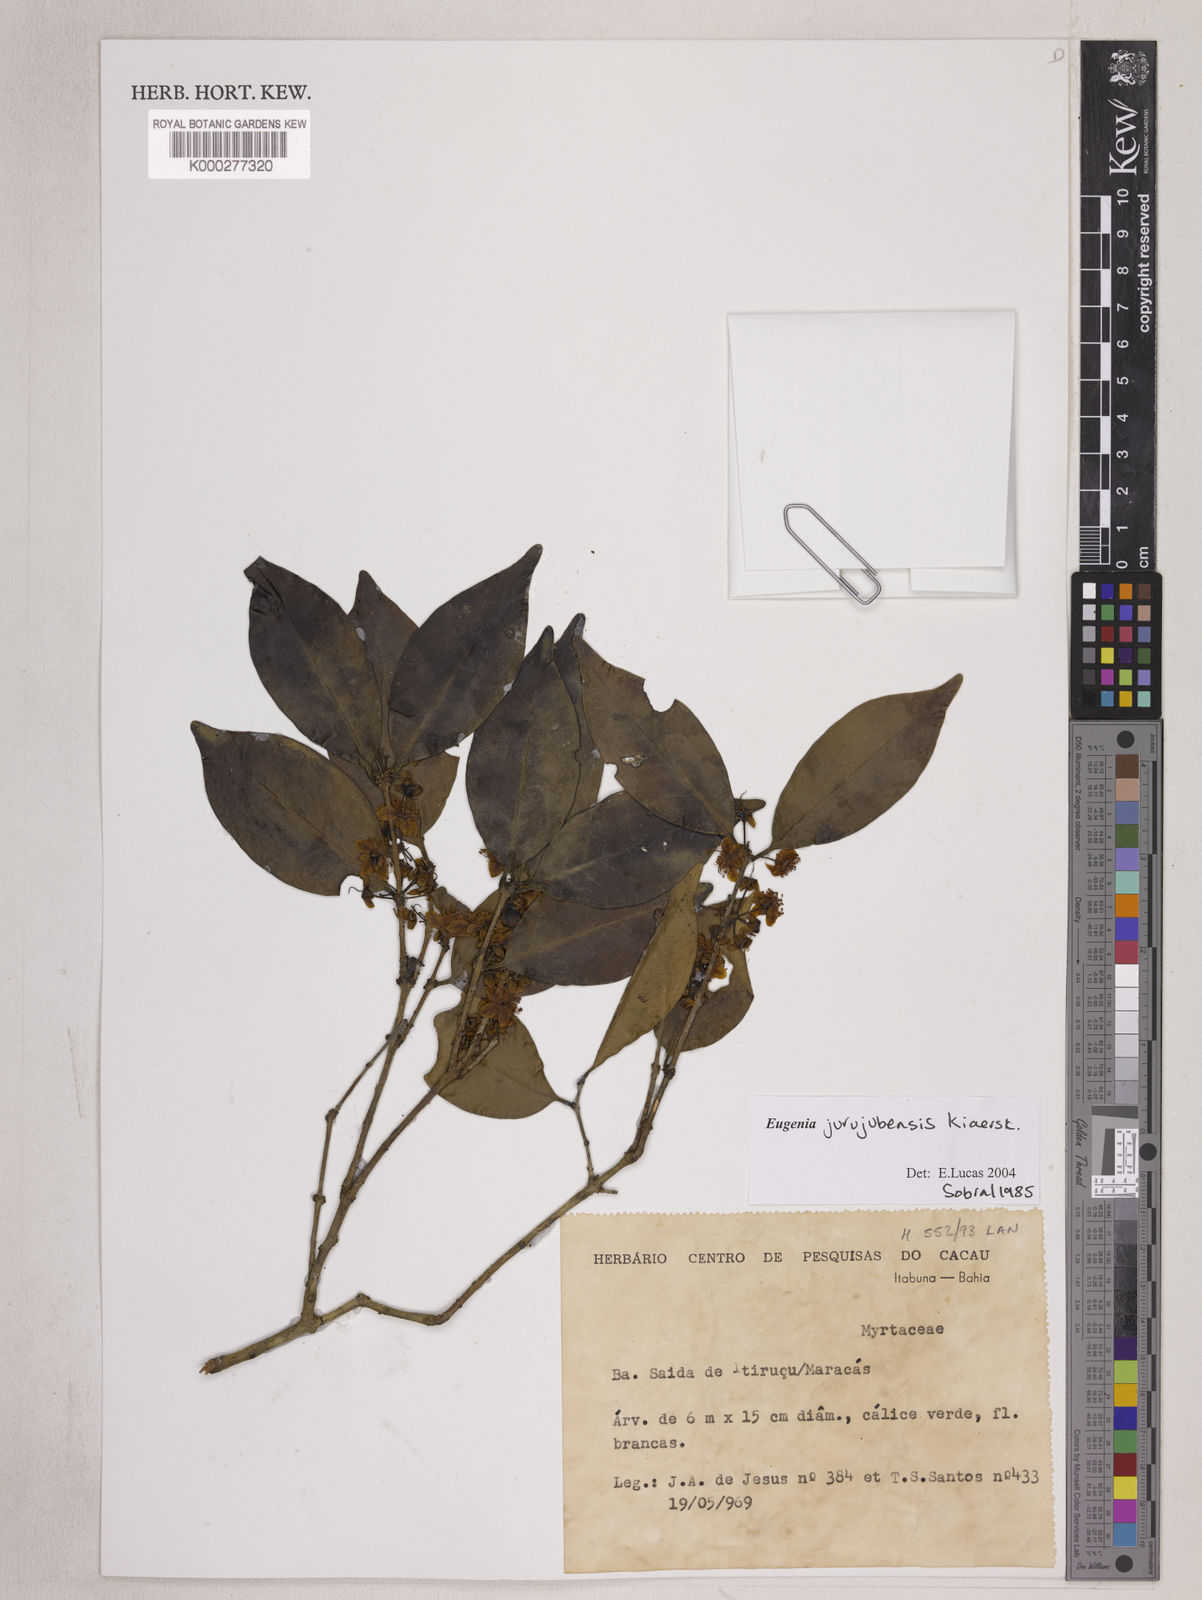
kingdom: Plantae
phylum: Tracheophyta
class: Magnoliopsida
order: Myrtales
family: Myrtaceae
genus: Eugenia
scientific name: Eugenia prasina
